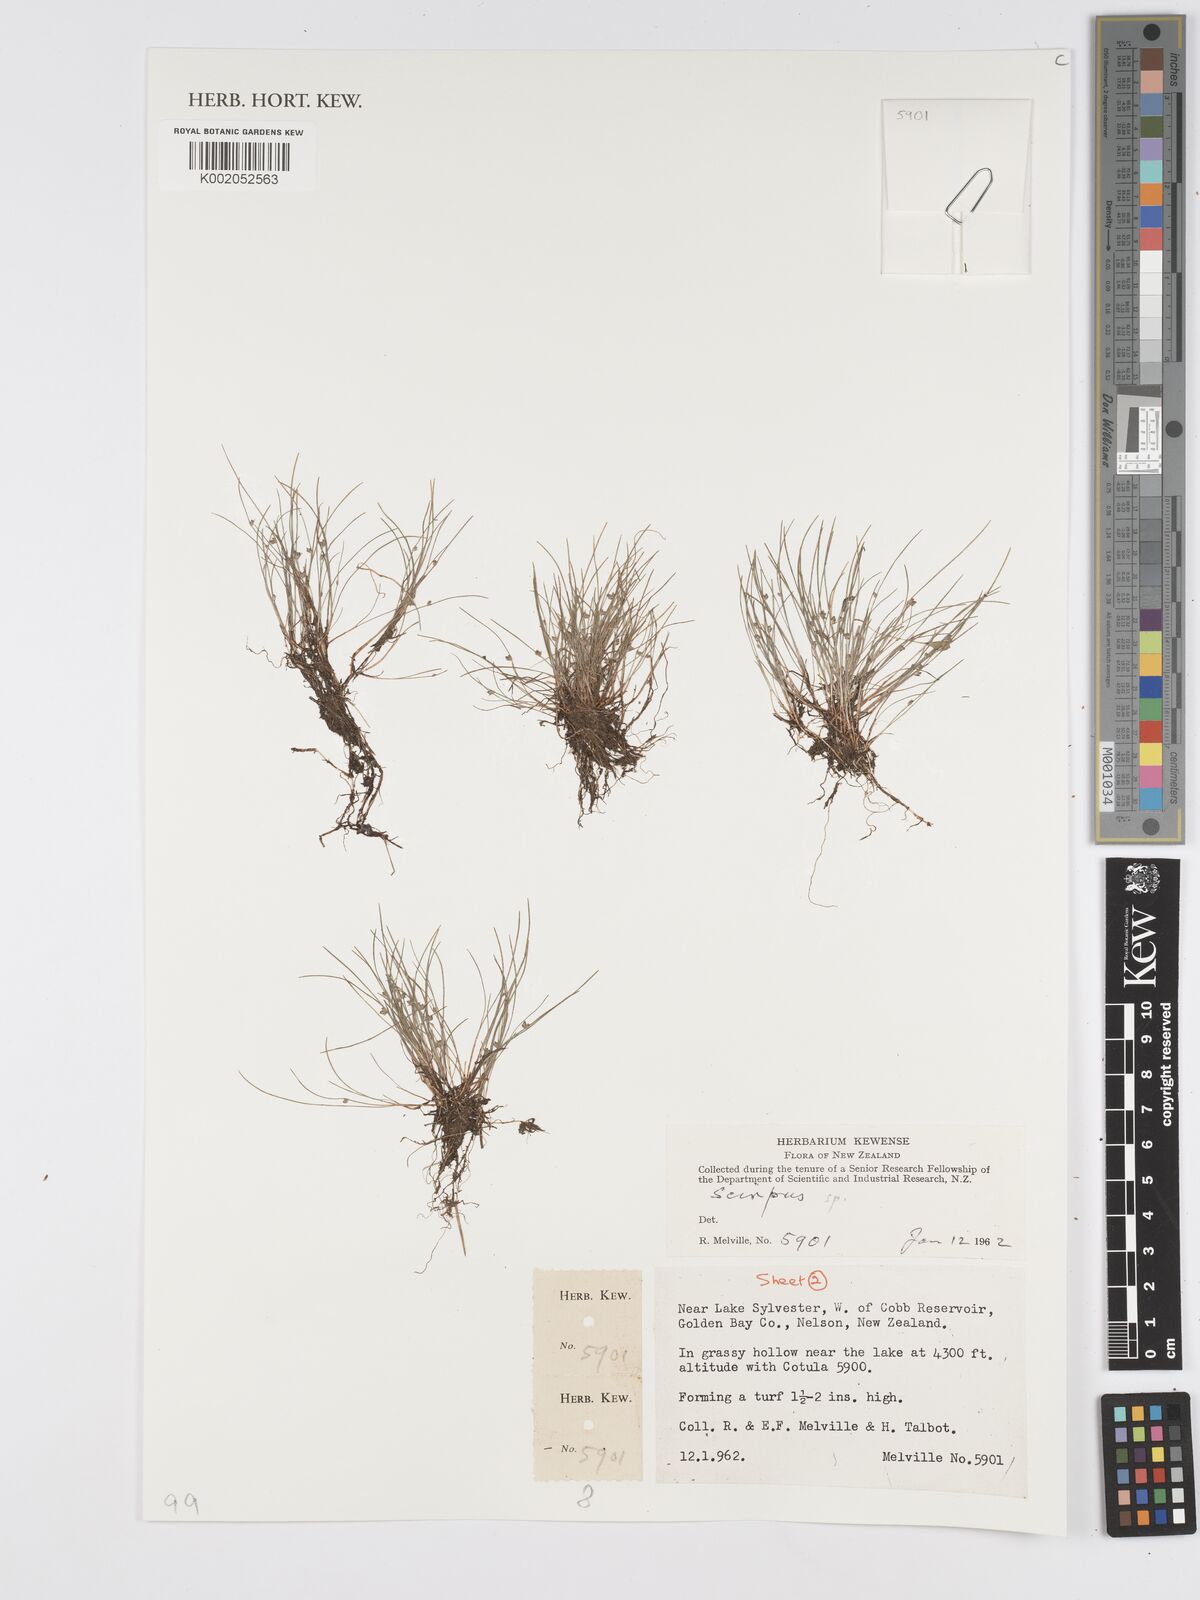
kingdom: Plantae
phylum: Tracheophyta
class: Liliopsida
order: Poales
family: Cyperaceae
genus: Scirpus
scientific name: Scirpus
